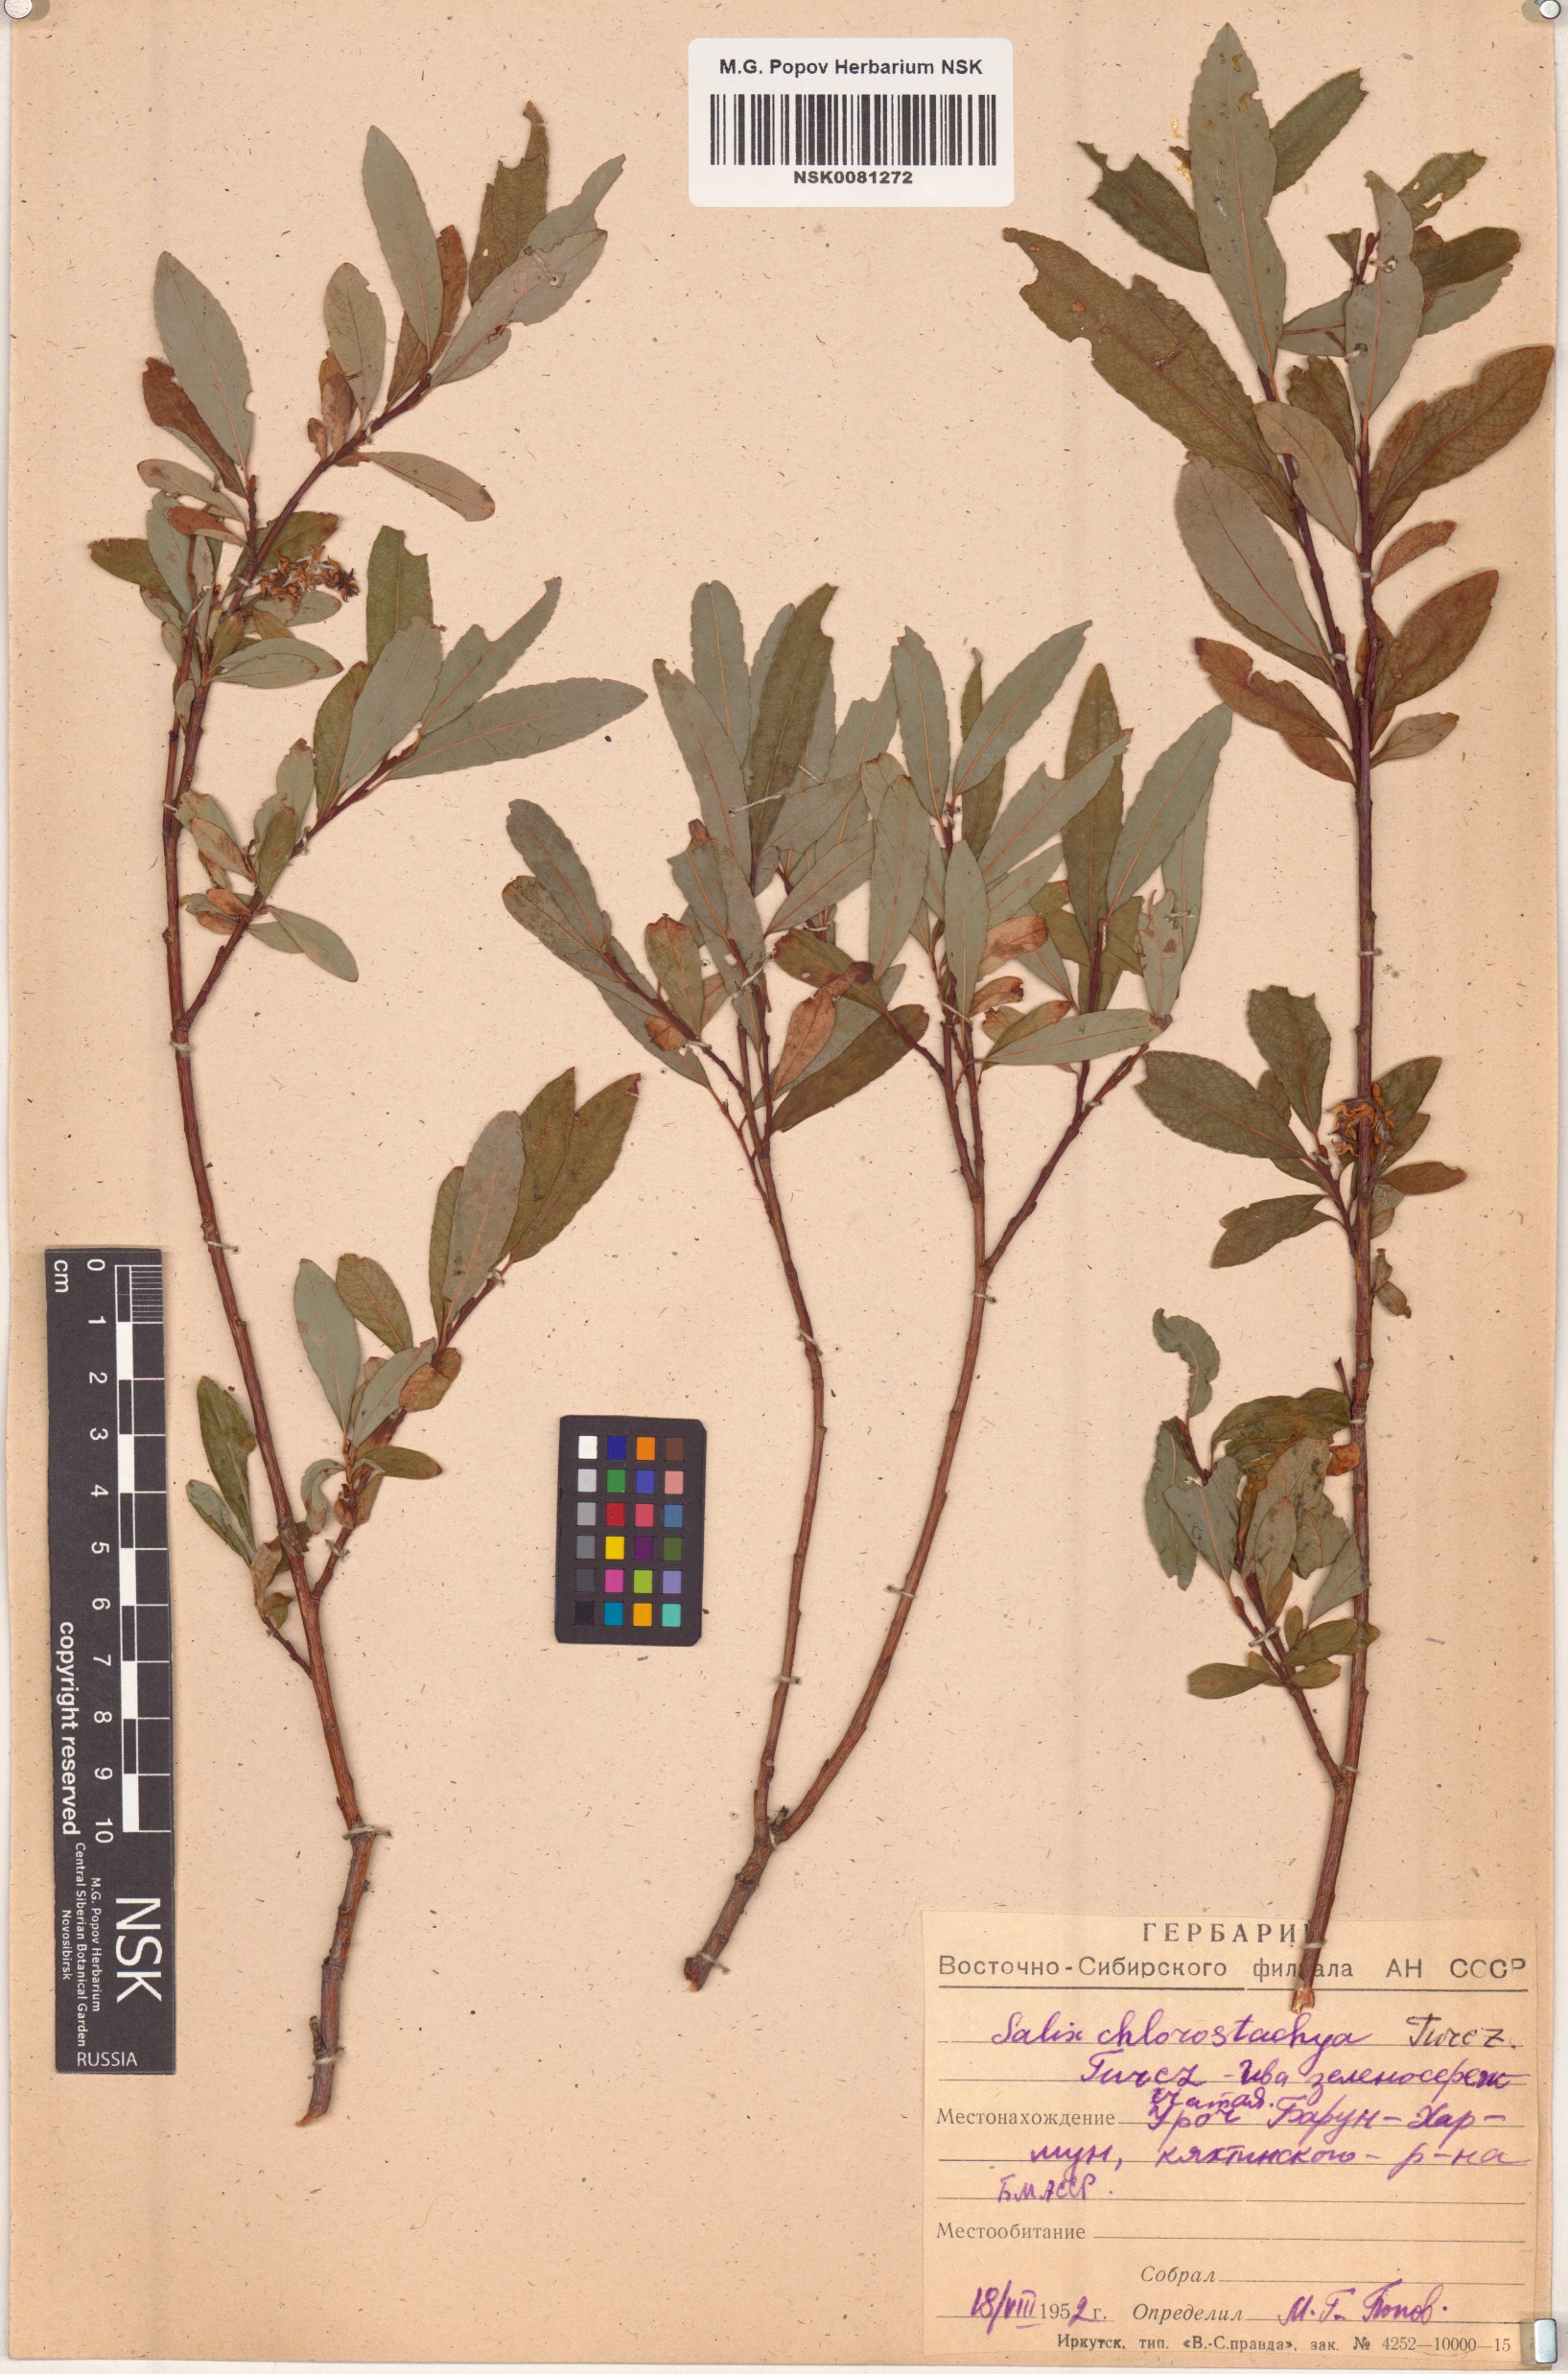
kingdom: Plantae
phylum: Tracheophyta
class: Magnoliopsida
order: Malpighiales
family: Salicaceae
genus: Salix
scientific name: Salix rhamnifolia
